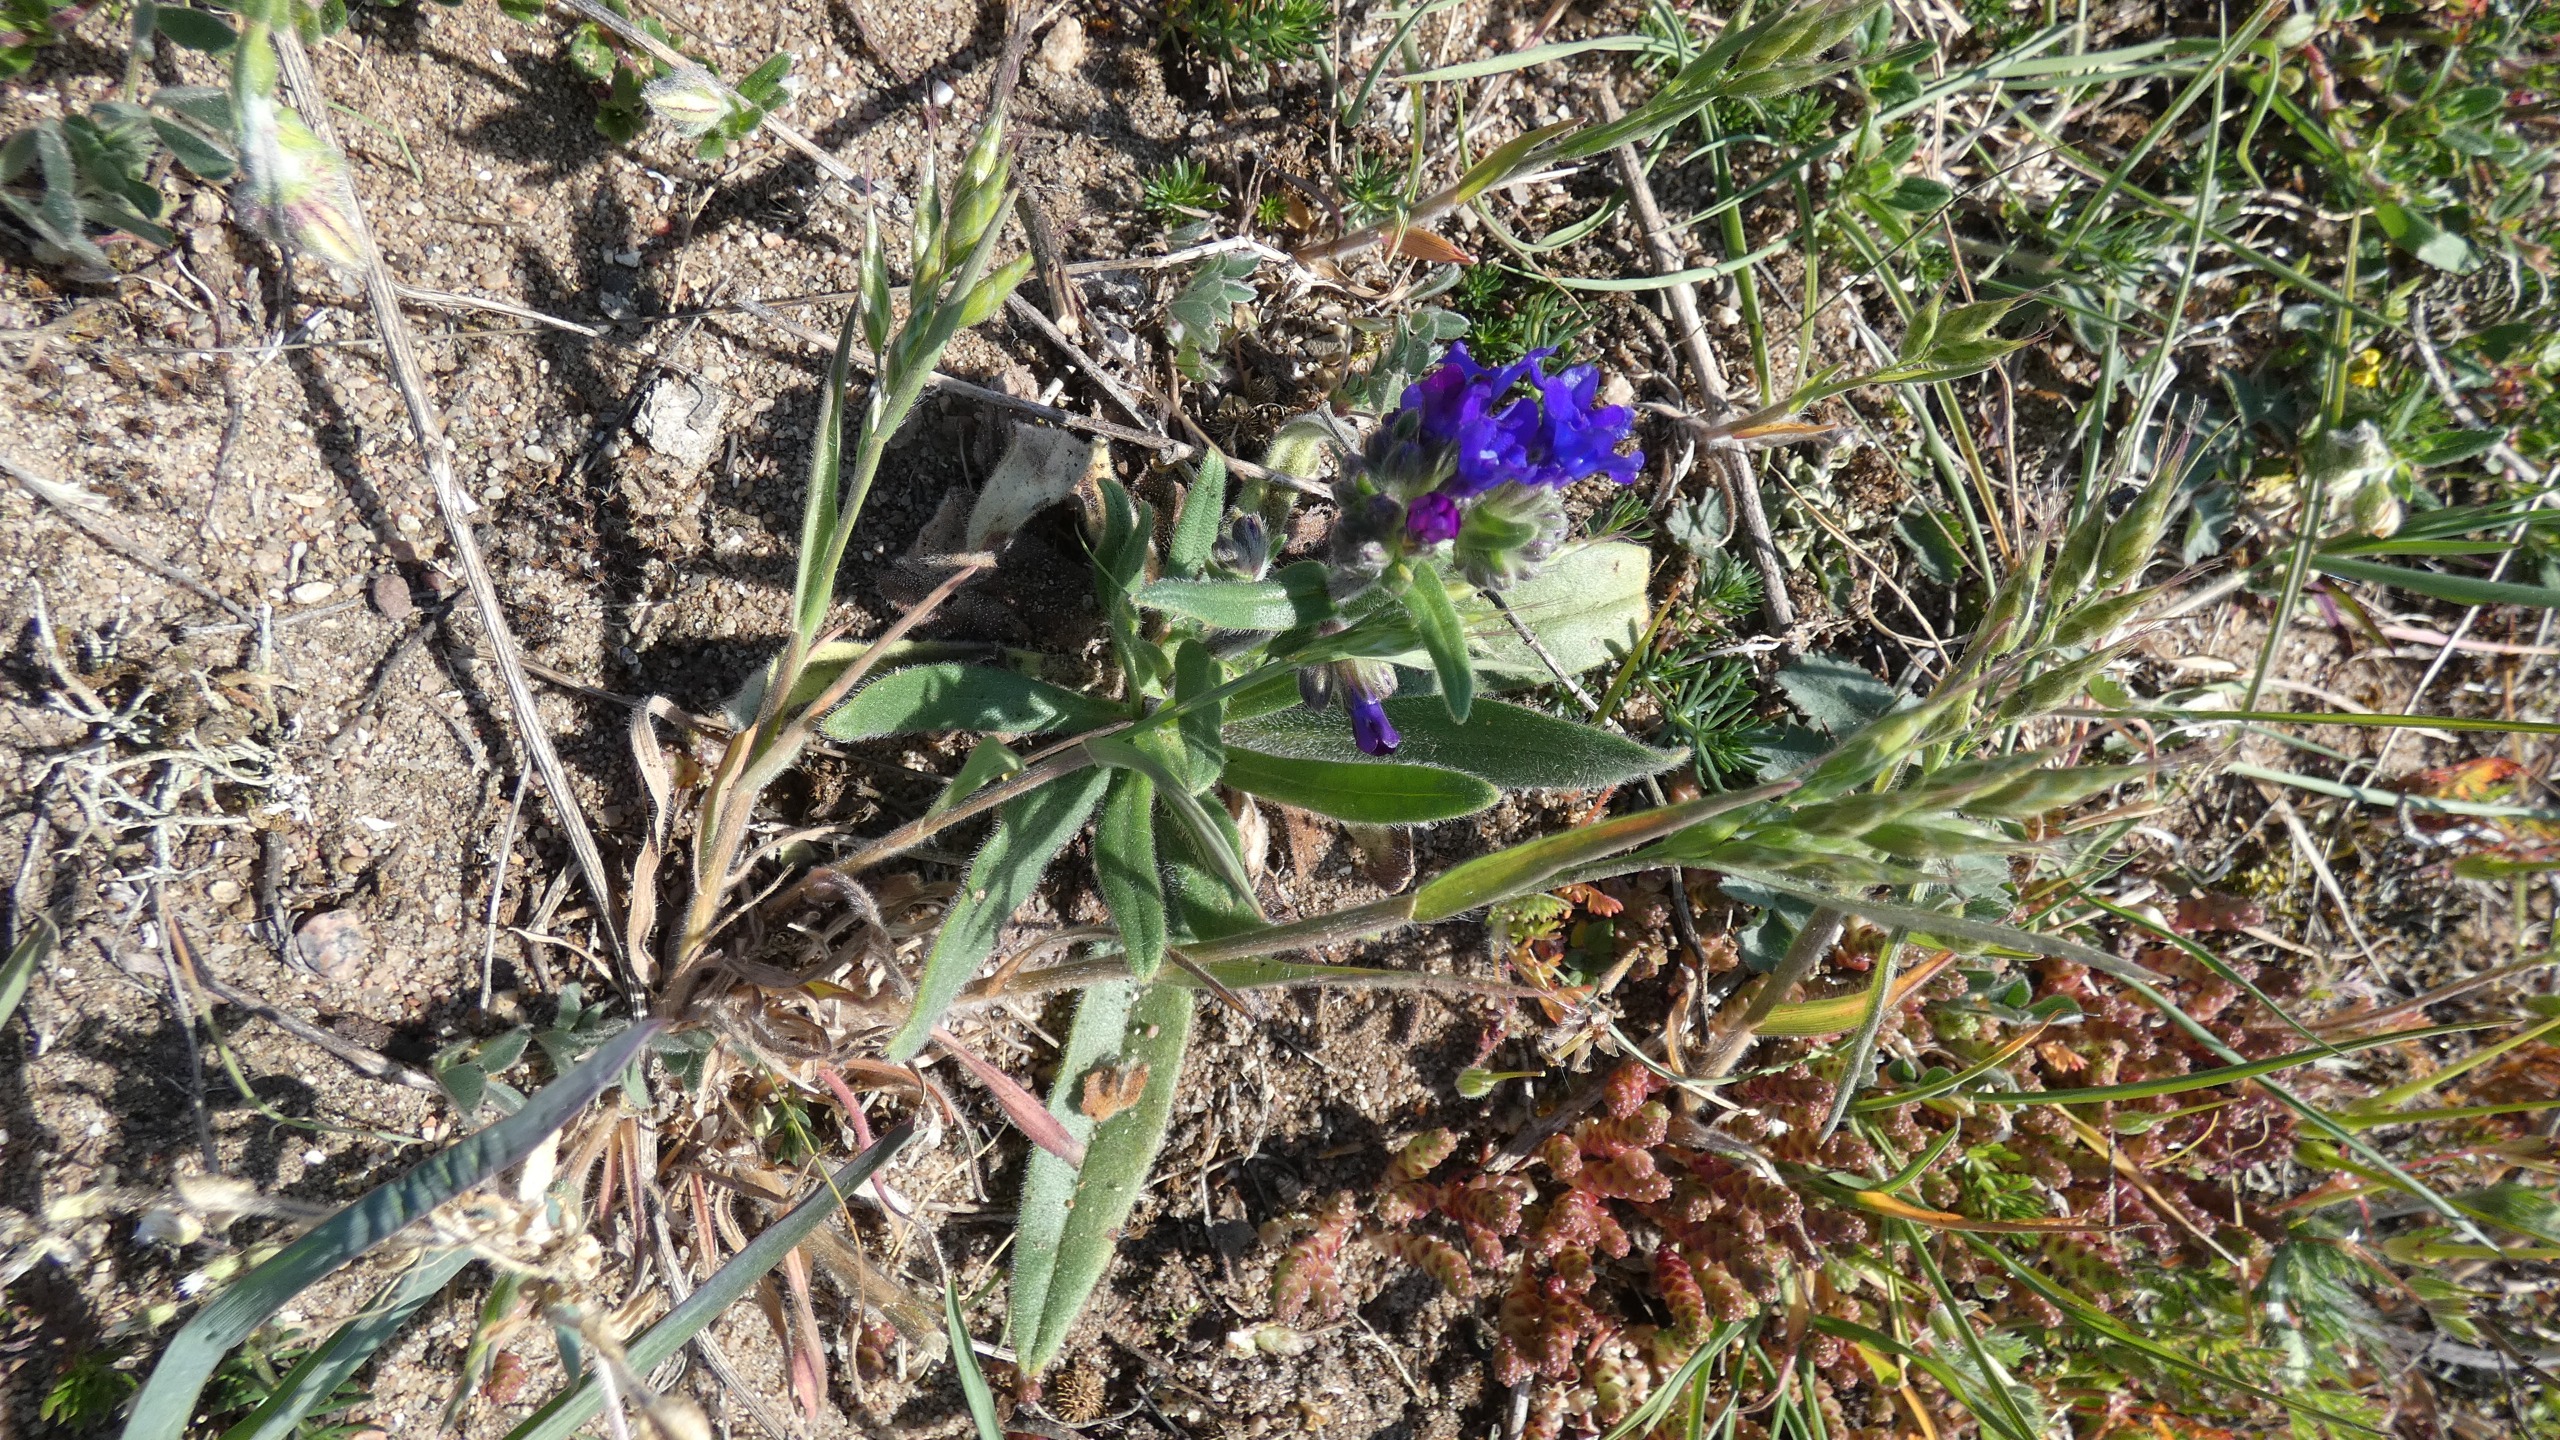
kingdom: Plantae
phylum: Tracheophyta
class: Magnoliopsida
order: Boraginales
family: Boraginaceae
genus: Anchusa
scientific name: Anchusa officinalis
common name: Læge-oksetunge
